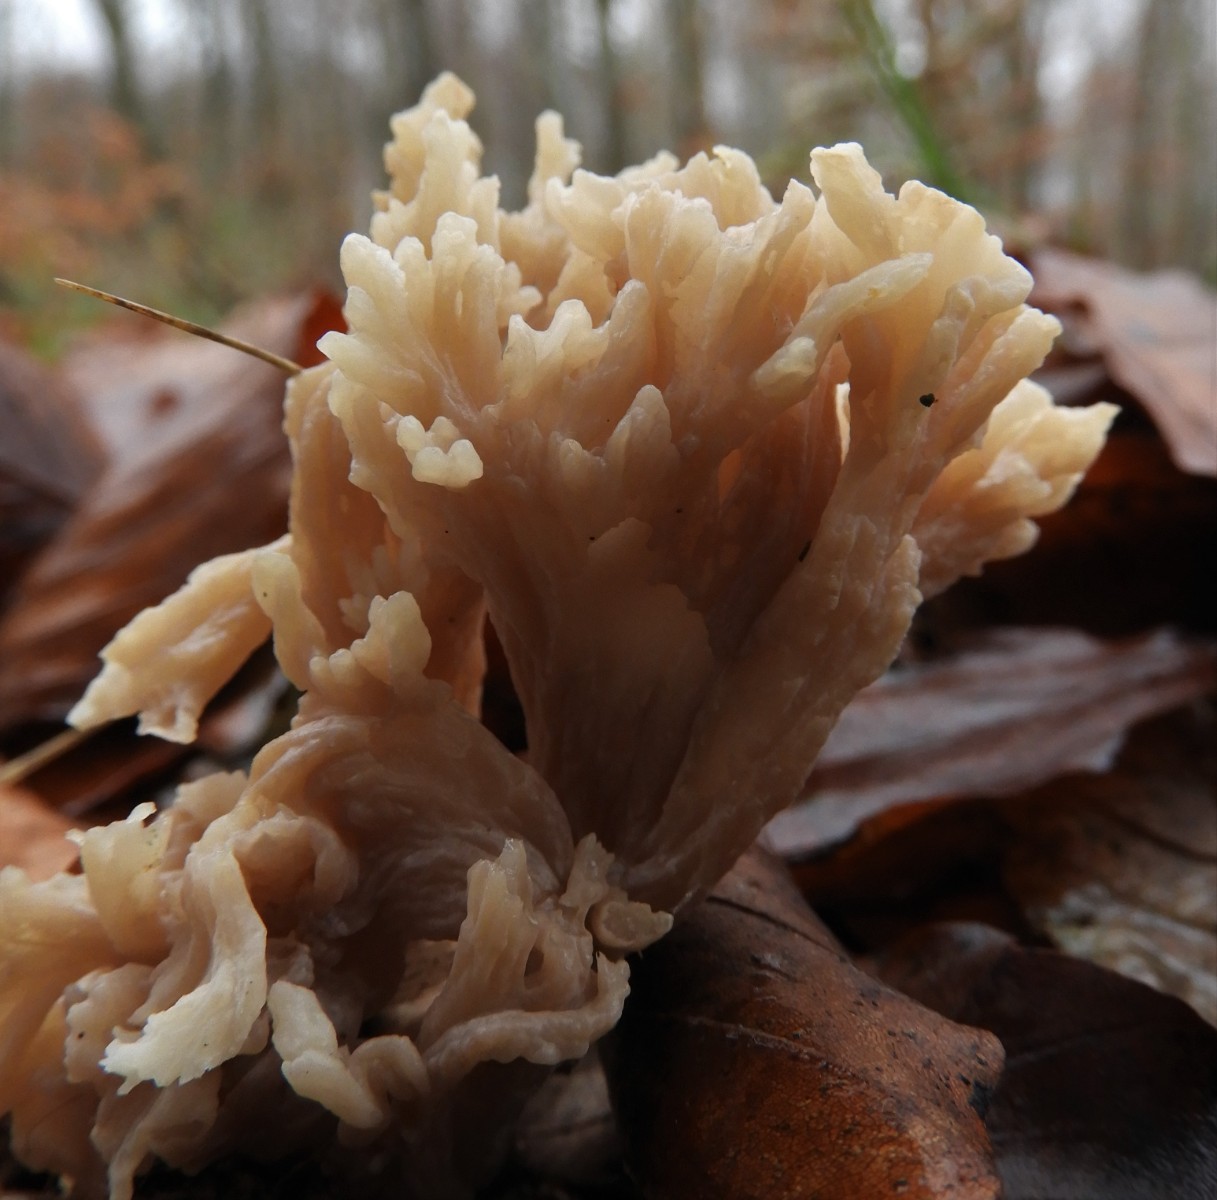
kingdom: Fungi
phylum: Basidiomycota
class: Agaricomycetes
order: Cantharellales
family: Hydnaceae
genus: Clavulina
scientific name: Clavulina
